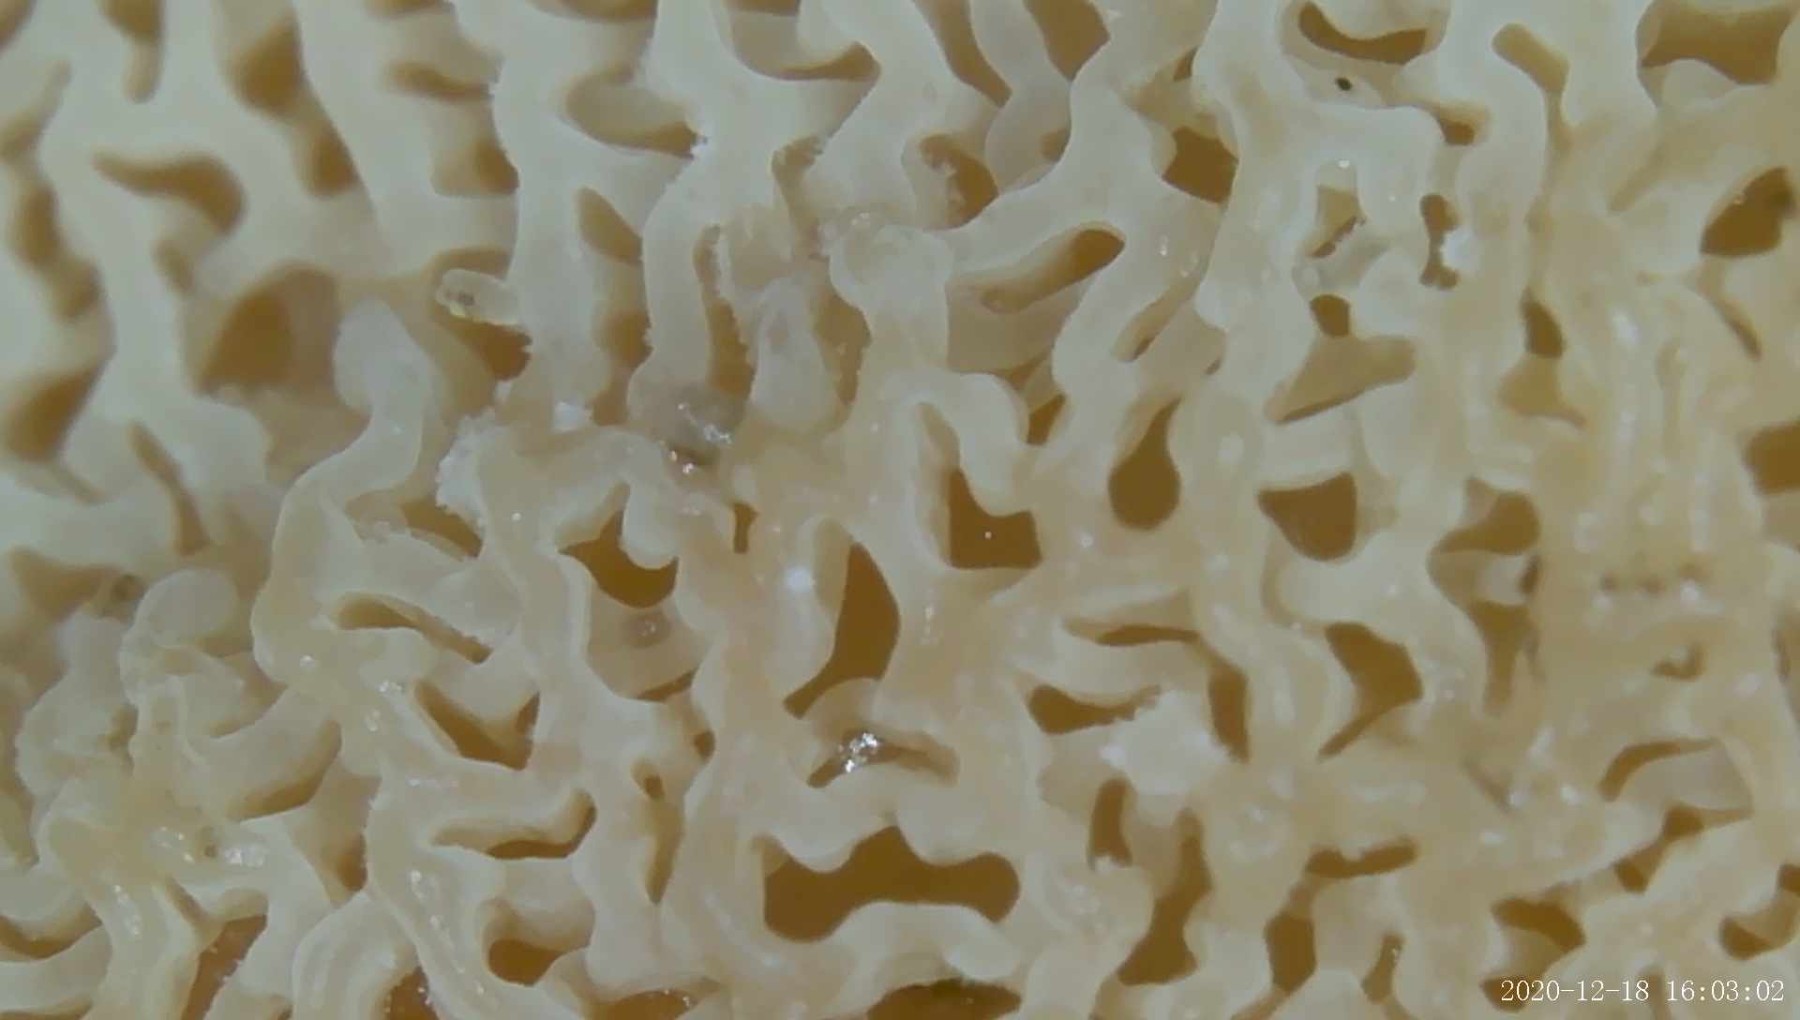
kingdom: Fungi
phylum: Basidiomycota
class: Agaricomycetes
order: Polyporales
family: Meruliaceae
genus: Phlebia
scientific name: Phlebia tremellosa
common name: bævrende åresvamp
